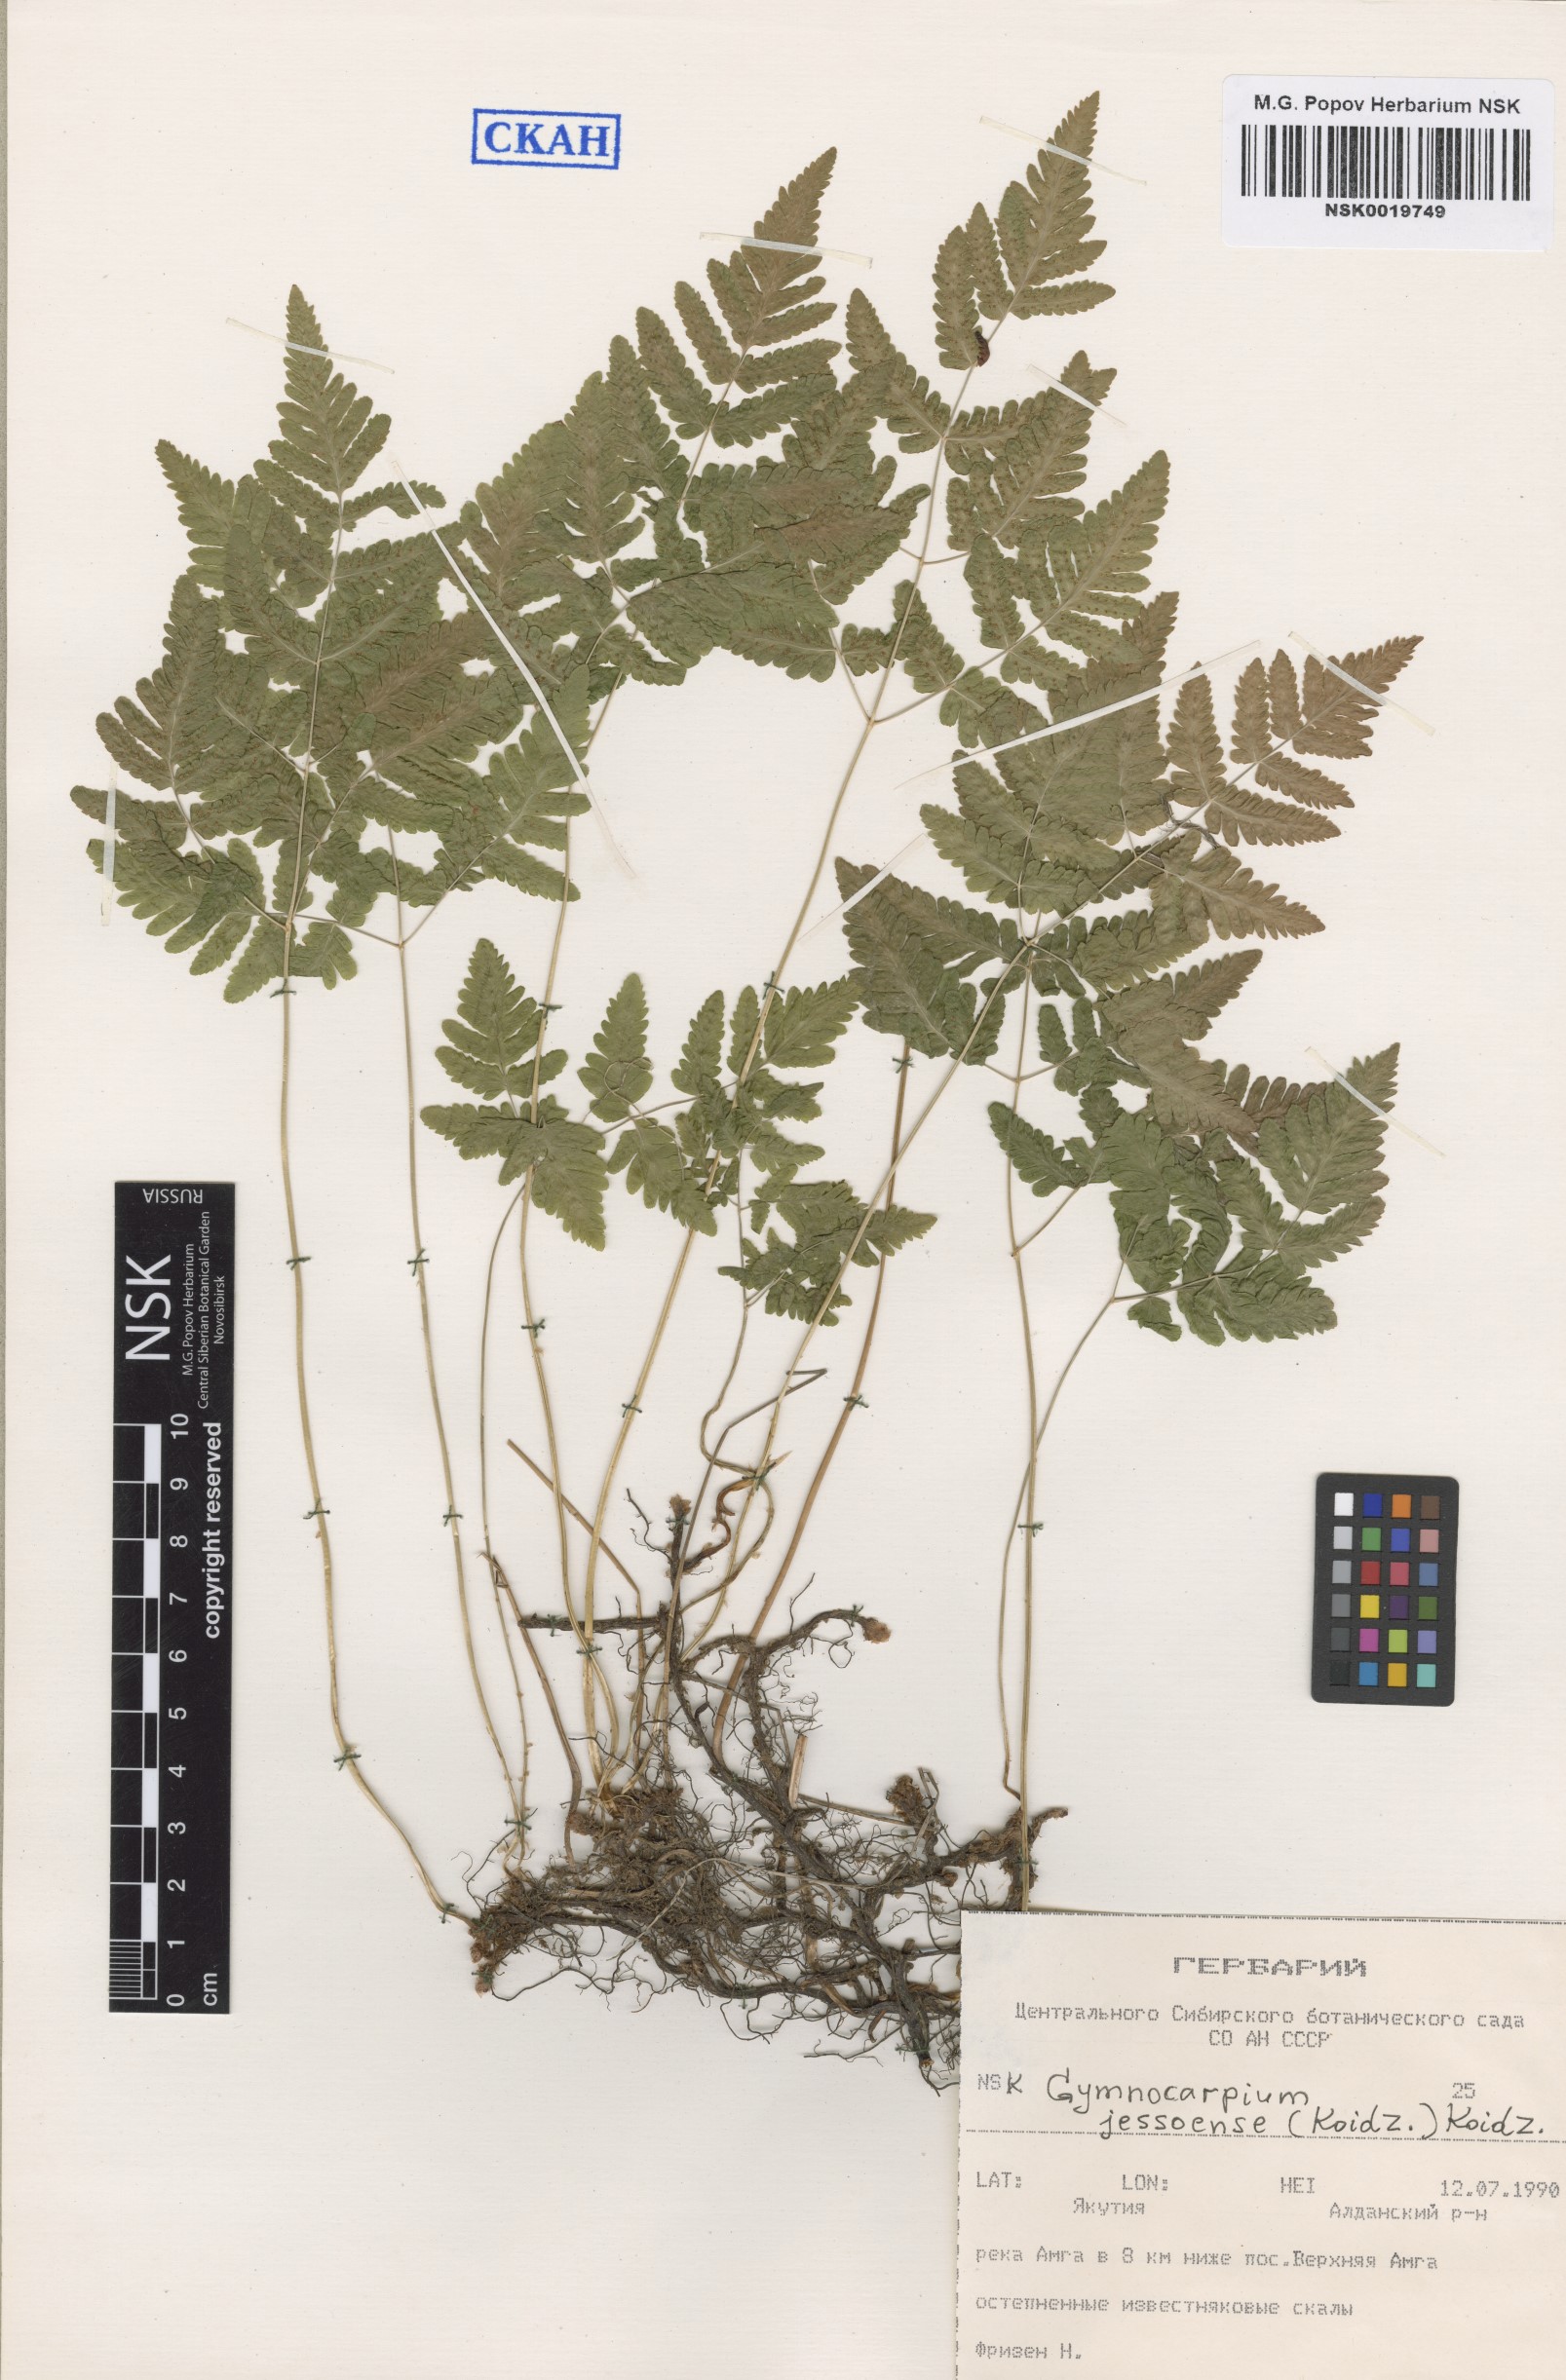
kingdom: Plantae
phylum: Tracheophyta
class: Polypodiopsida
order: Polypodiales
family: Cystopteridaceae
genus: Gymnocarpium
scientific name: Gymnocarpium jessoense
